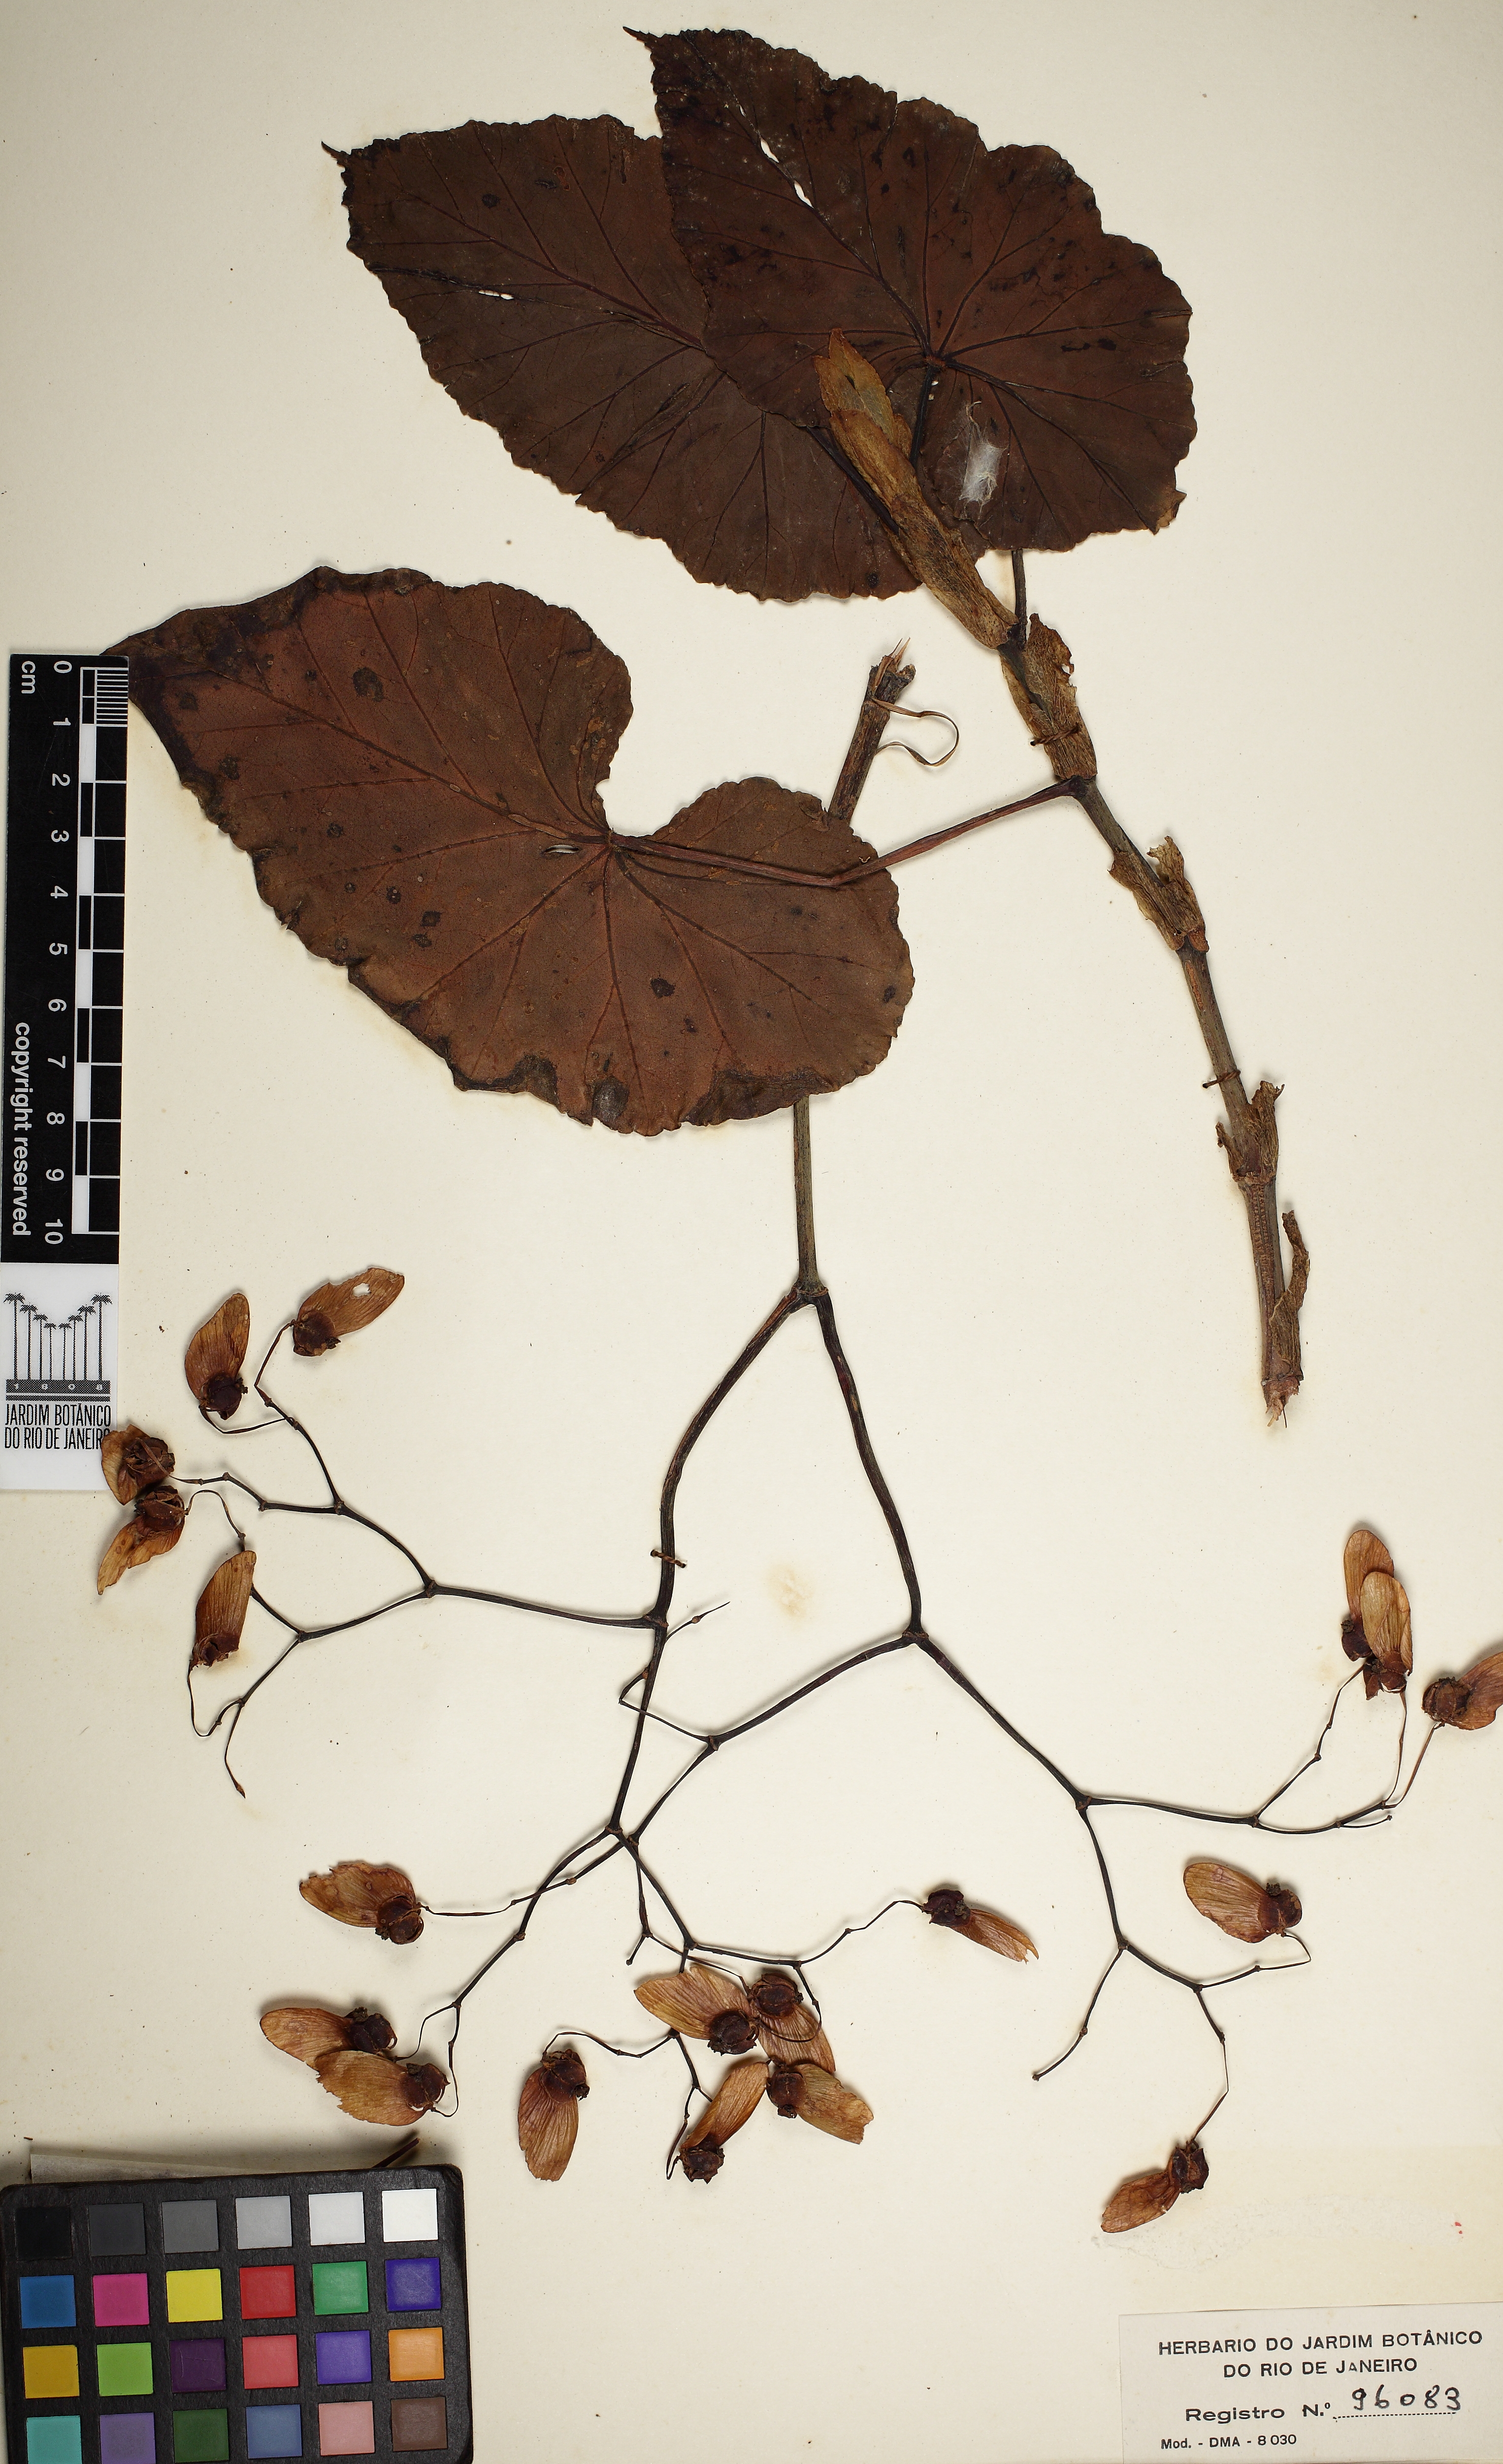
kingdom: Plantae
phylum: Tracheophyta
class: Magnoliopsida
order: Cucurbitales
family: Begoniaceae
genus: Begonia
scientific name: Begonia valdensium
